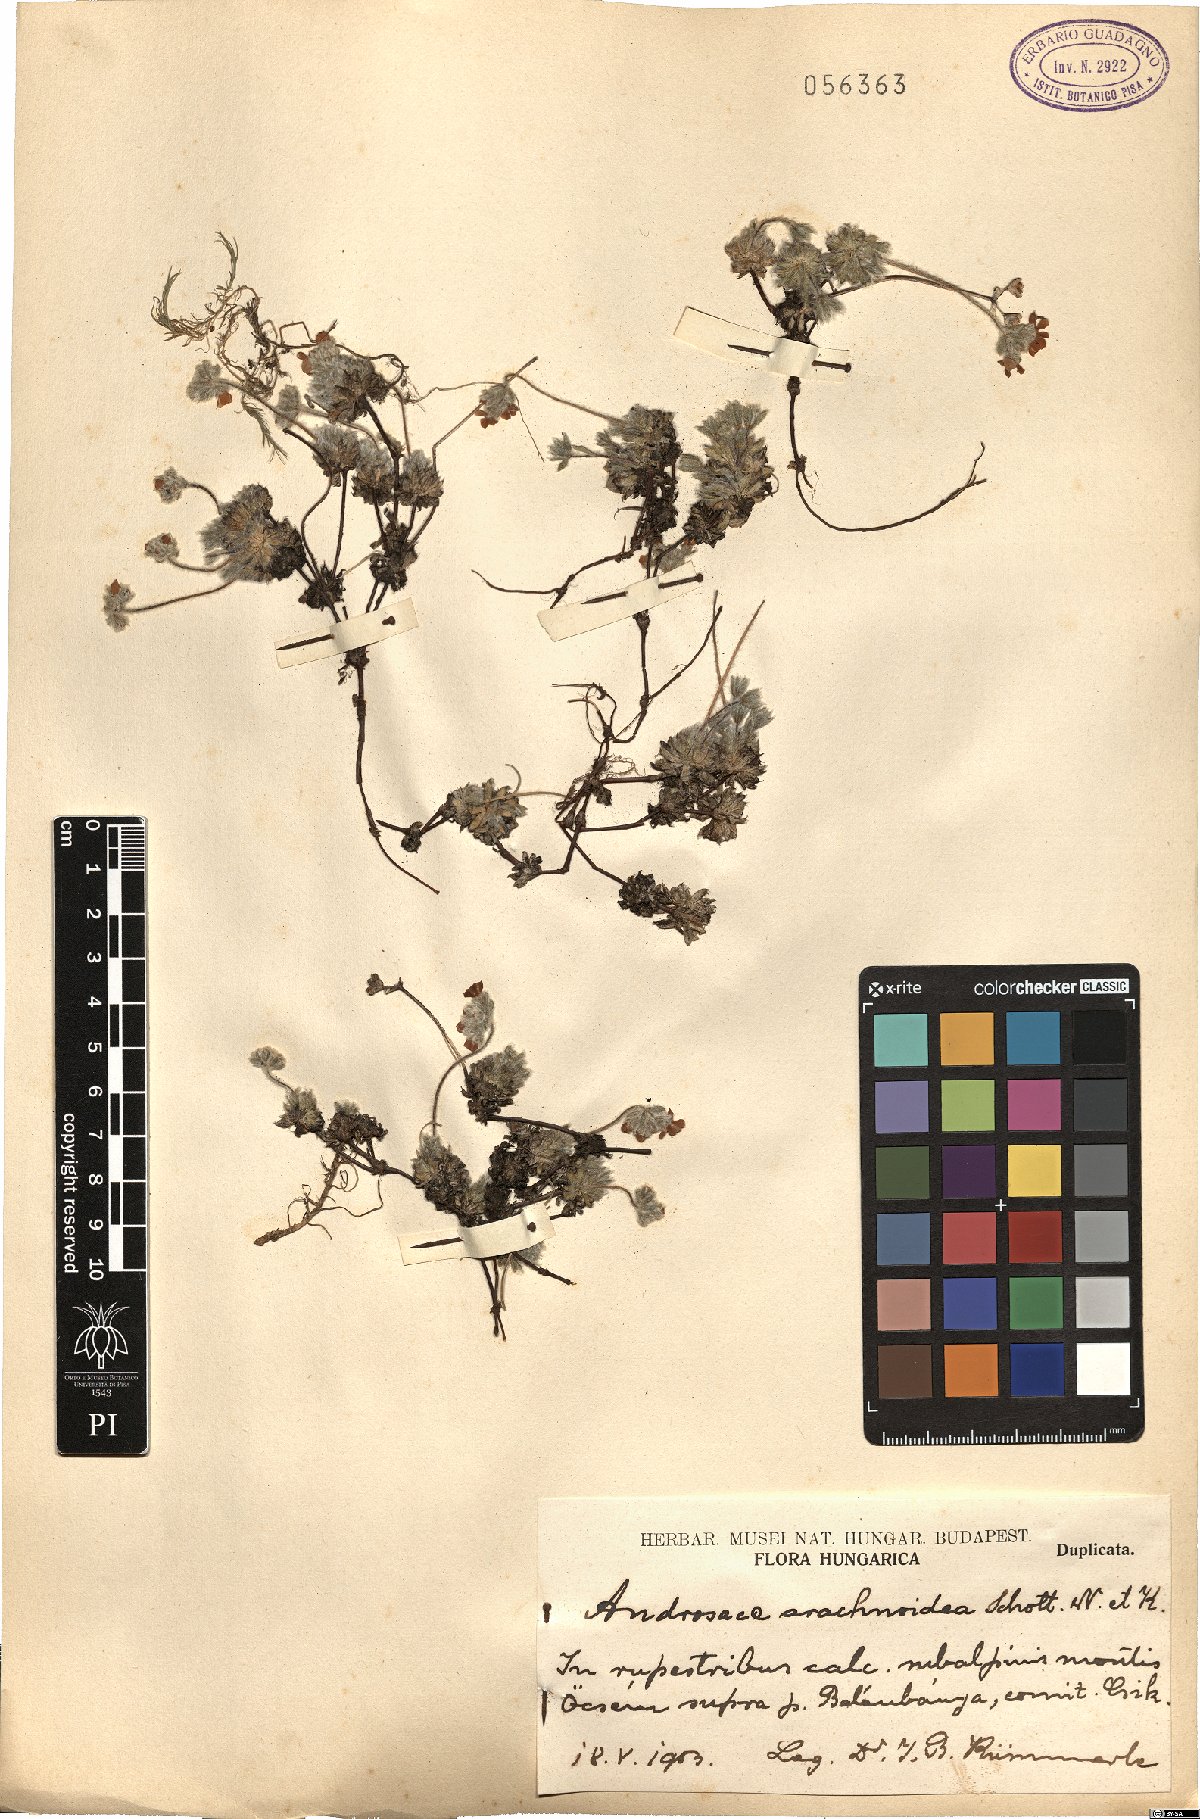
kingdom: Plantae
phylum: Tracheophyta
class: Magnoliopsida
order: Ericales
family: Primulaceae
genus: Androsace
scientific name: Androsace villosa
